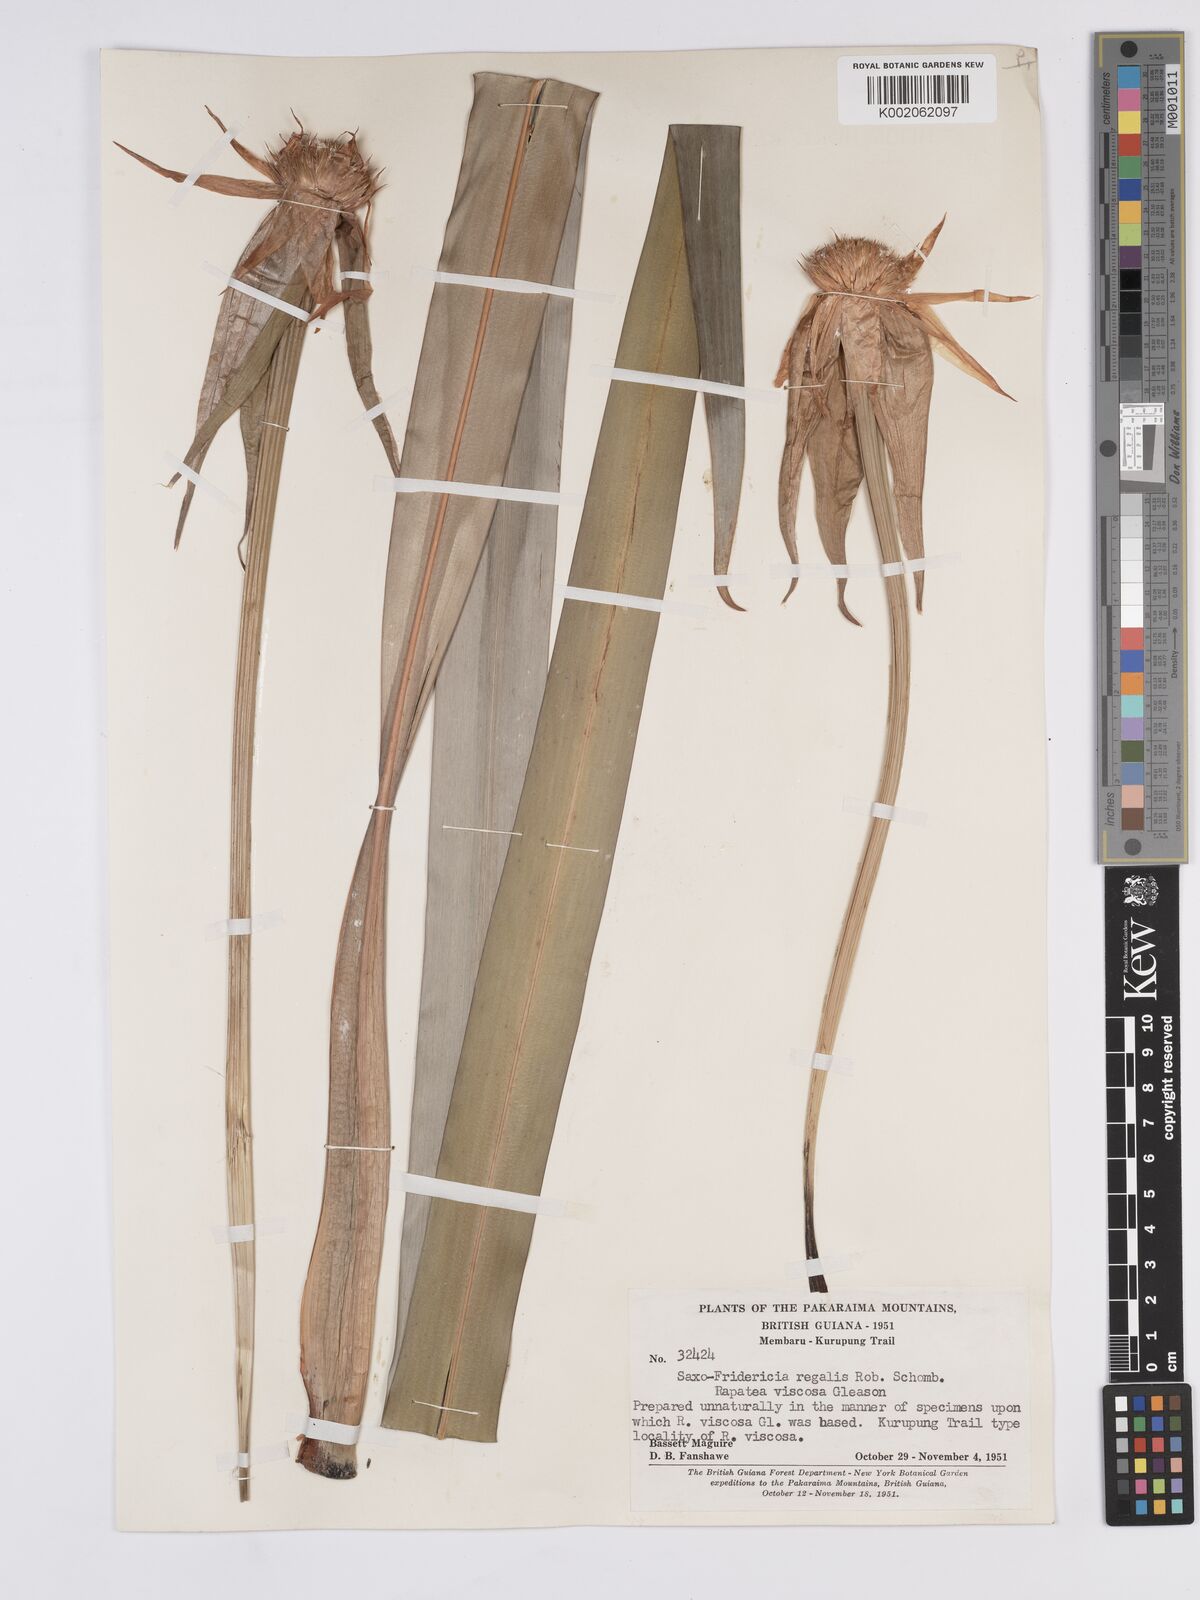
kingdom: Plantae
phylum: Tracheophyta
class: Liliopsida
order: Poales
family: Rapateaceae
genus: Saxofridericia
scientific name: Saxofridericia regalis
